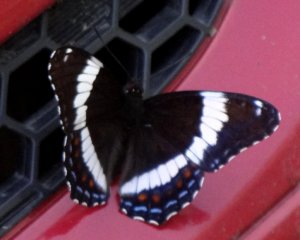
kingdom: Animalia
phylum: Arthropoda
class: Insecta
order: Lepidoptera
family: Nymphalidae
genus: Limenitis
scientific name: Limenitis arthemis
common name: Red-spotted Admiral
